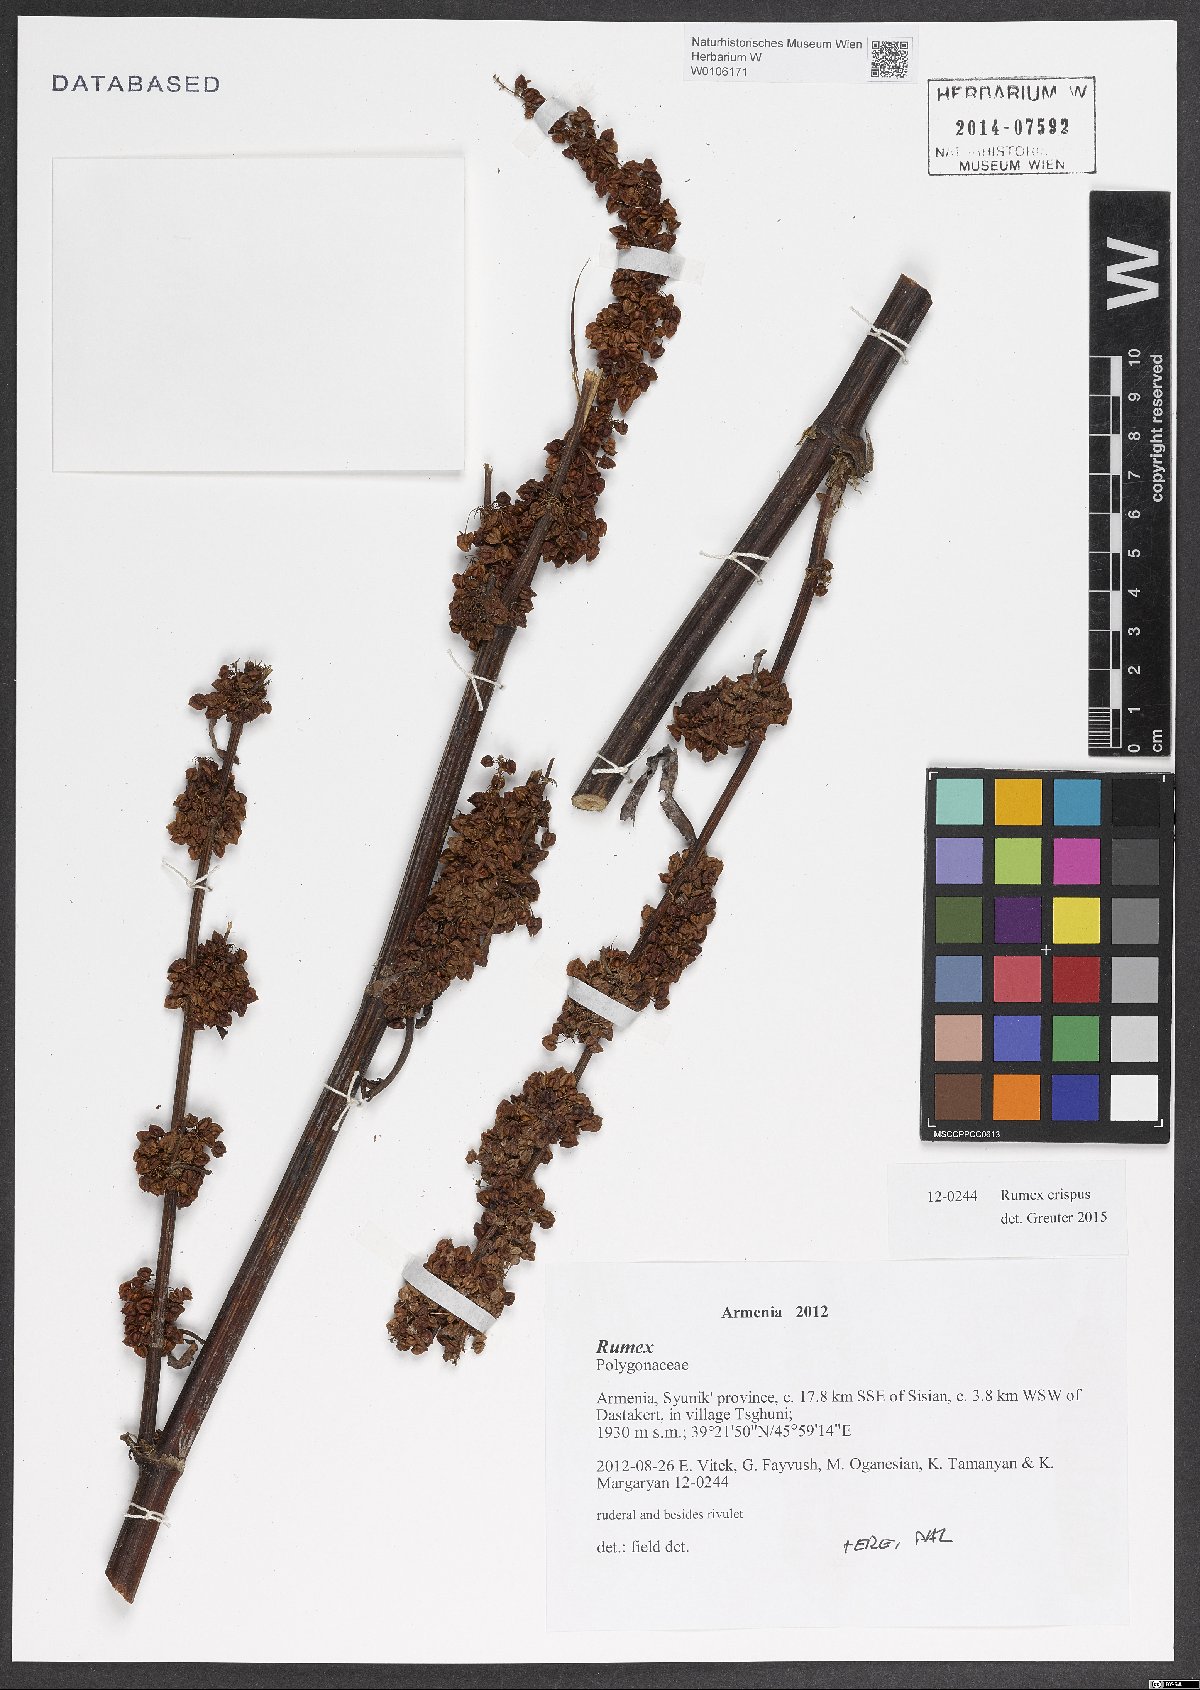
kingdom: Plantae
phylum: Tracheophyta
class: Magnoliopsida
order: Caryophyllales
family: Polygonaceae
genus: Rumex
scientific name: Rumex crispus
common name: Curled dock
